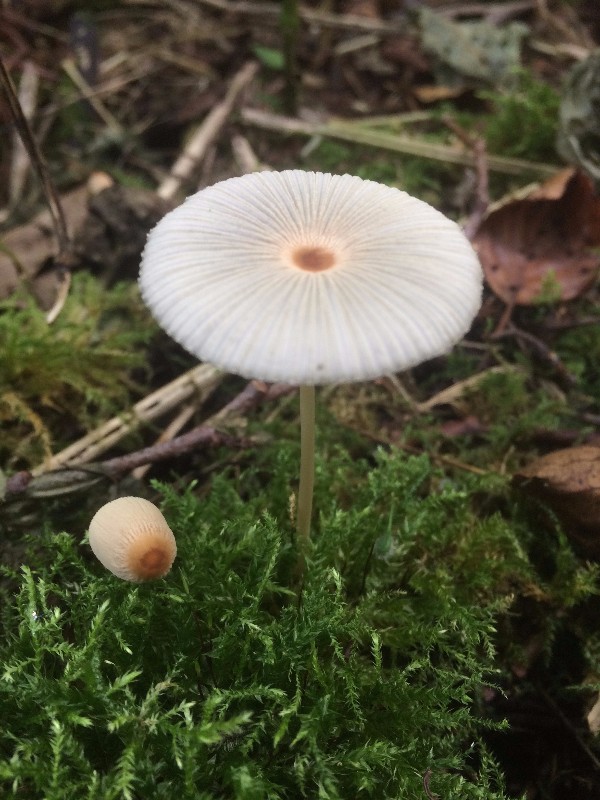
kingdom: Fungi
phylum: Basidiomycota
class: Agaricomycetes
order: Agaricales
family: Psathyrellaceae
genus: Parasola
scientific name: Parasola
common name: hjulhat
